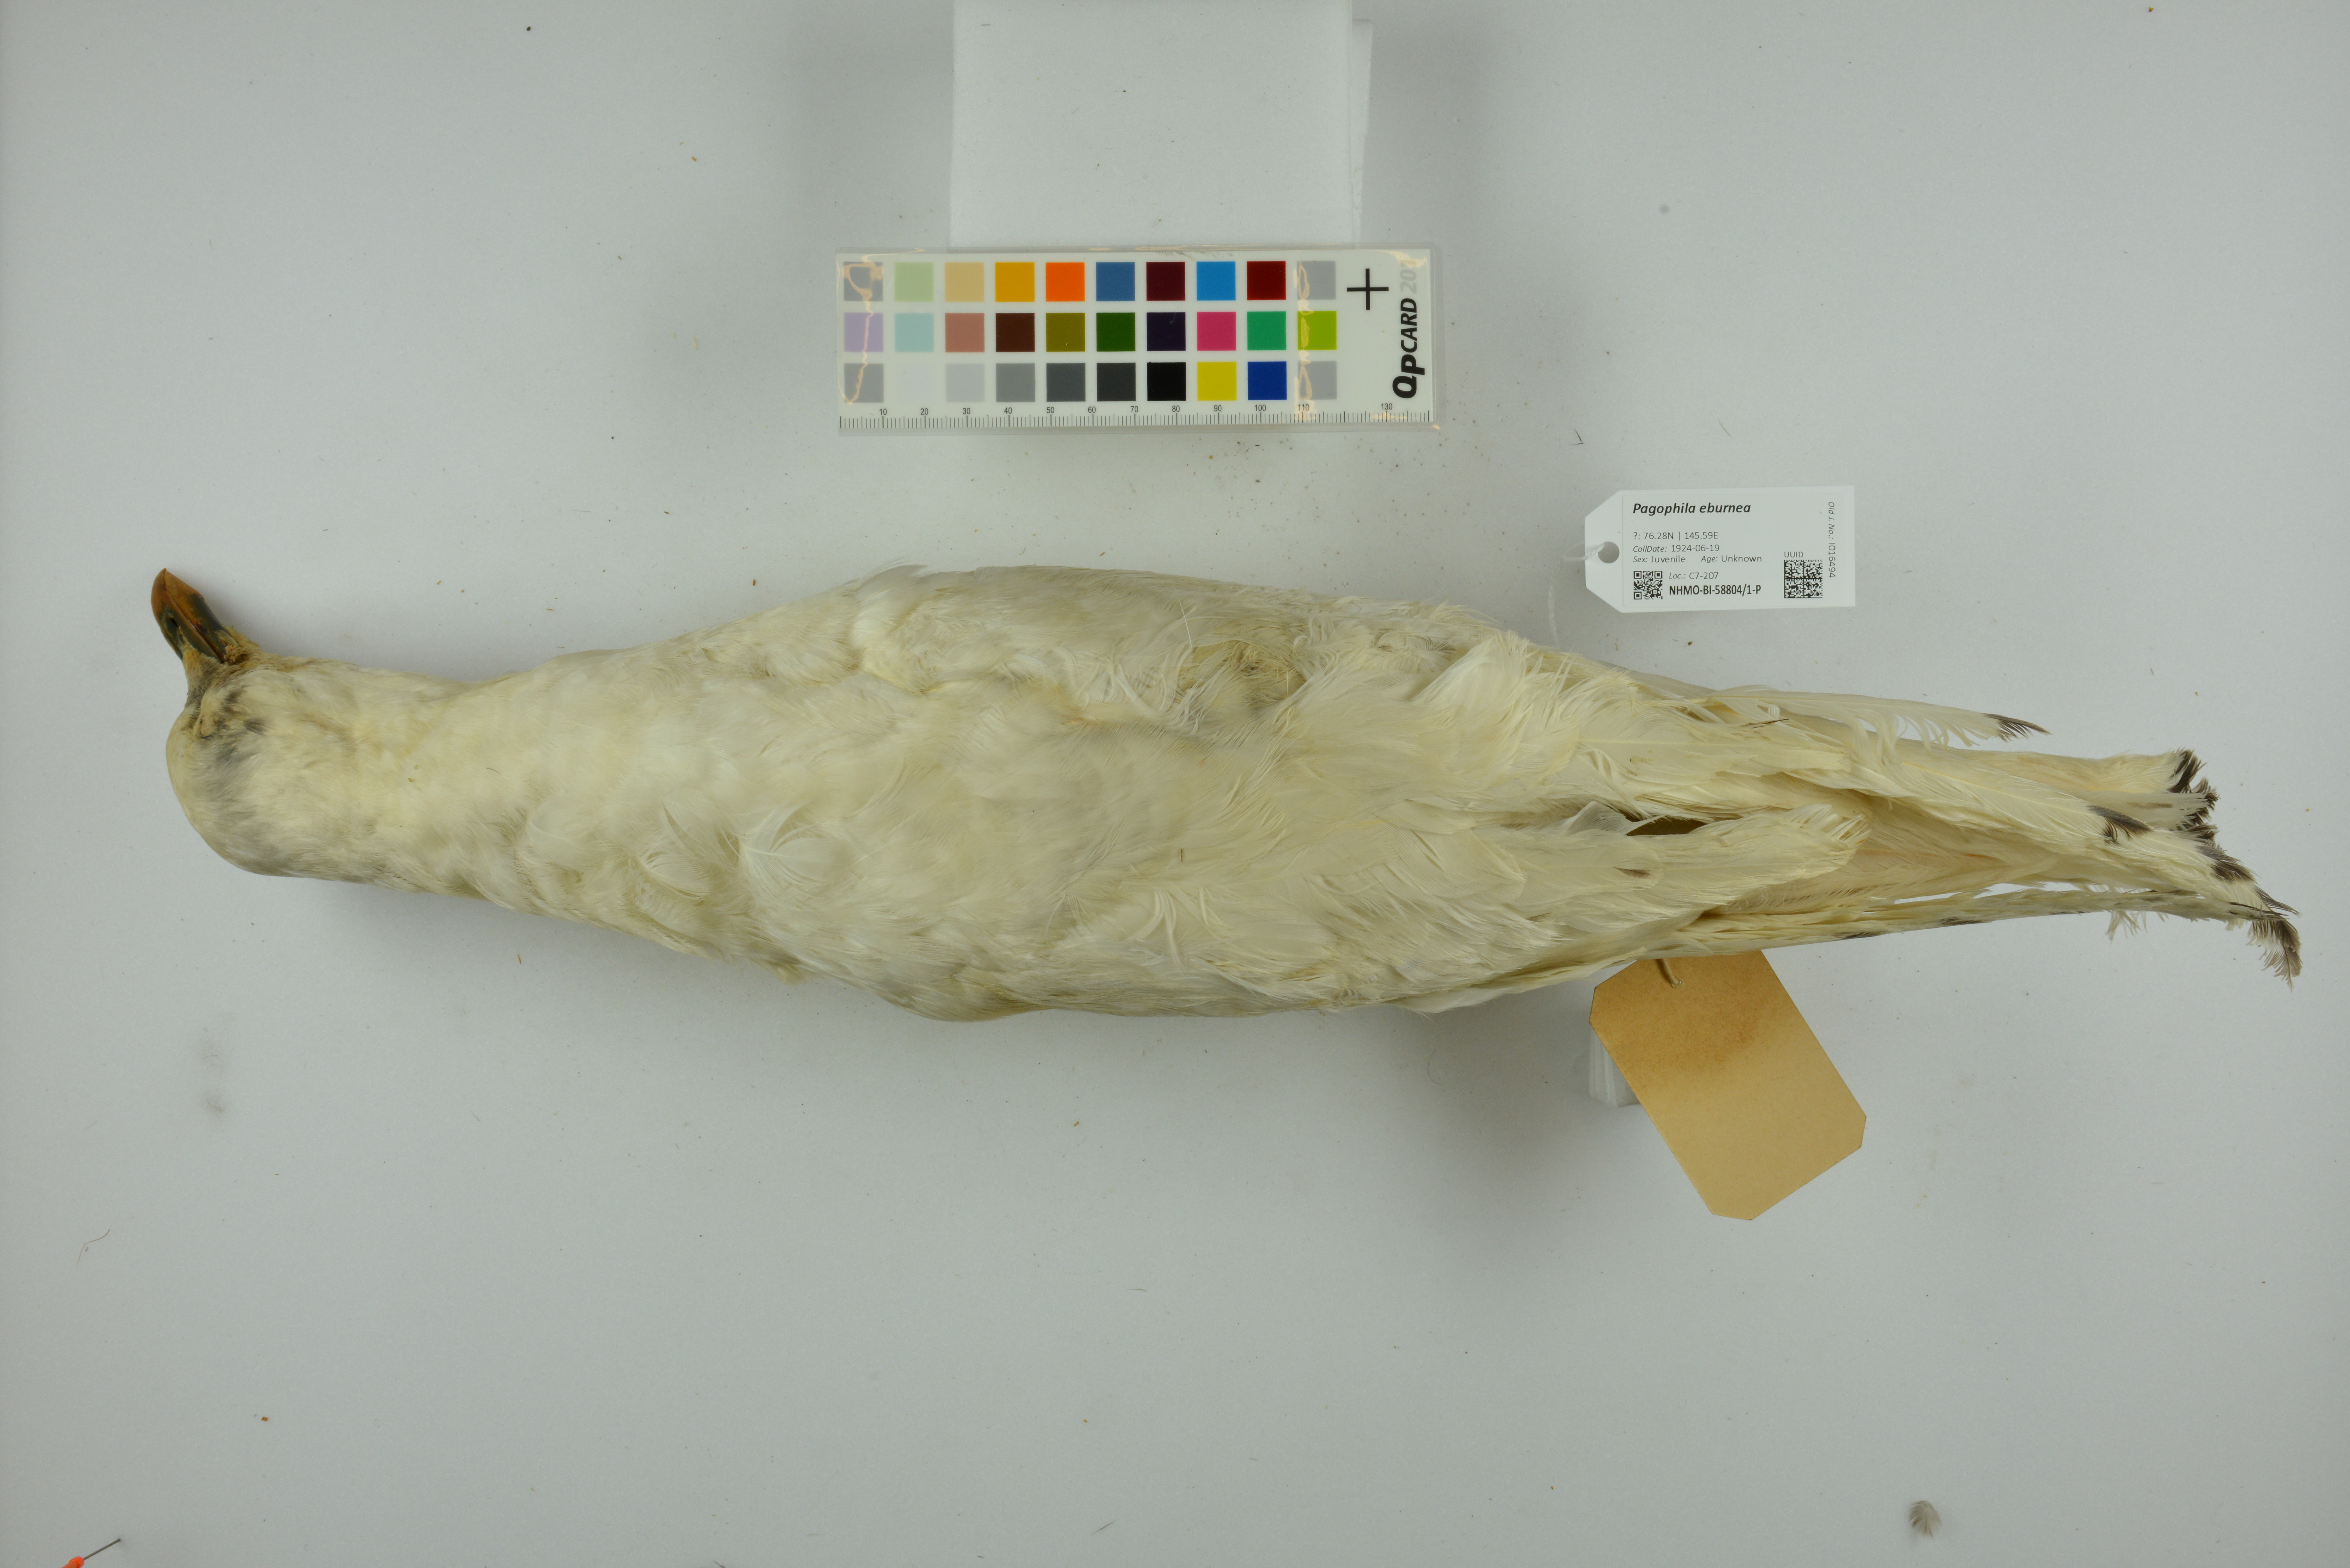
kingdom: Animalia
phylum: Chordata
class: Aves
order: Charadriiformes
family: Laridae
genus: Pagophila
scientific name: Pagophila eburnea
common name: Ivory gull
